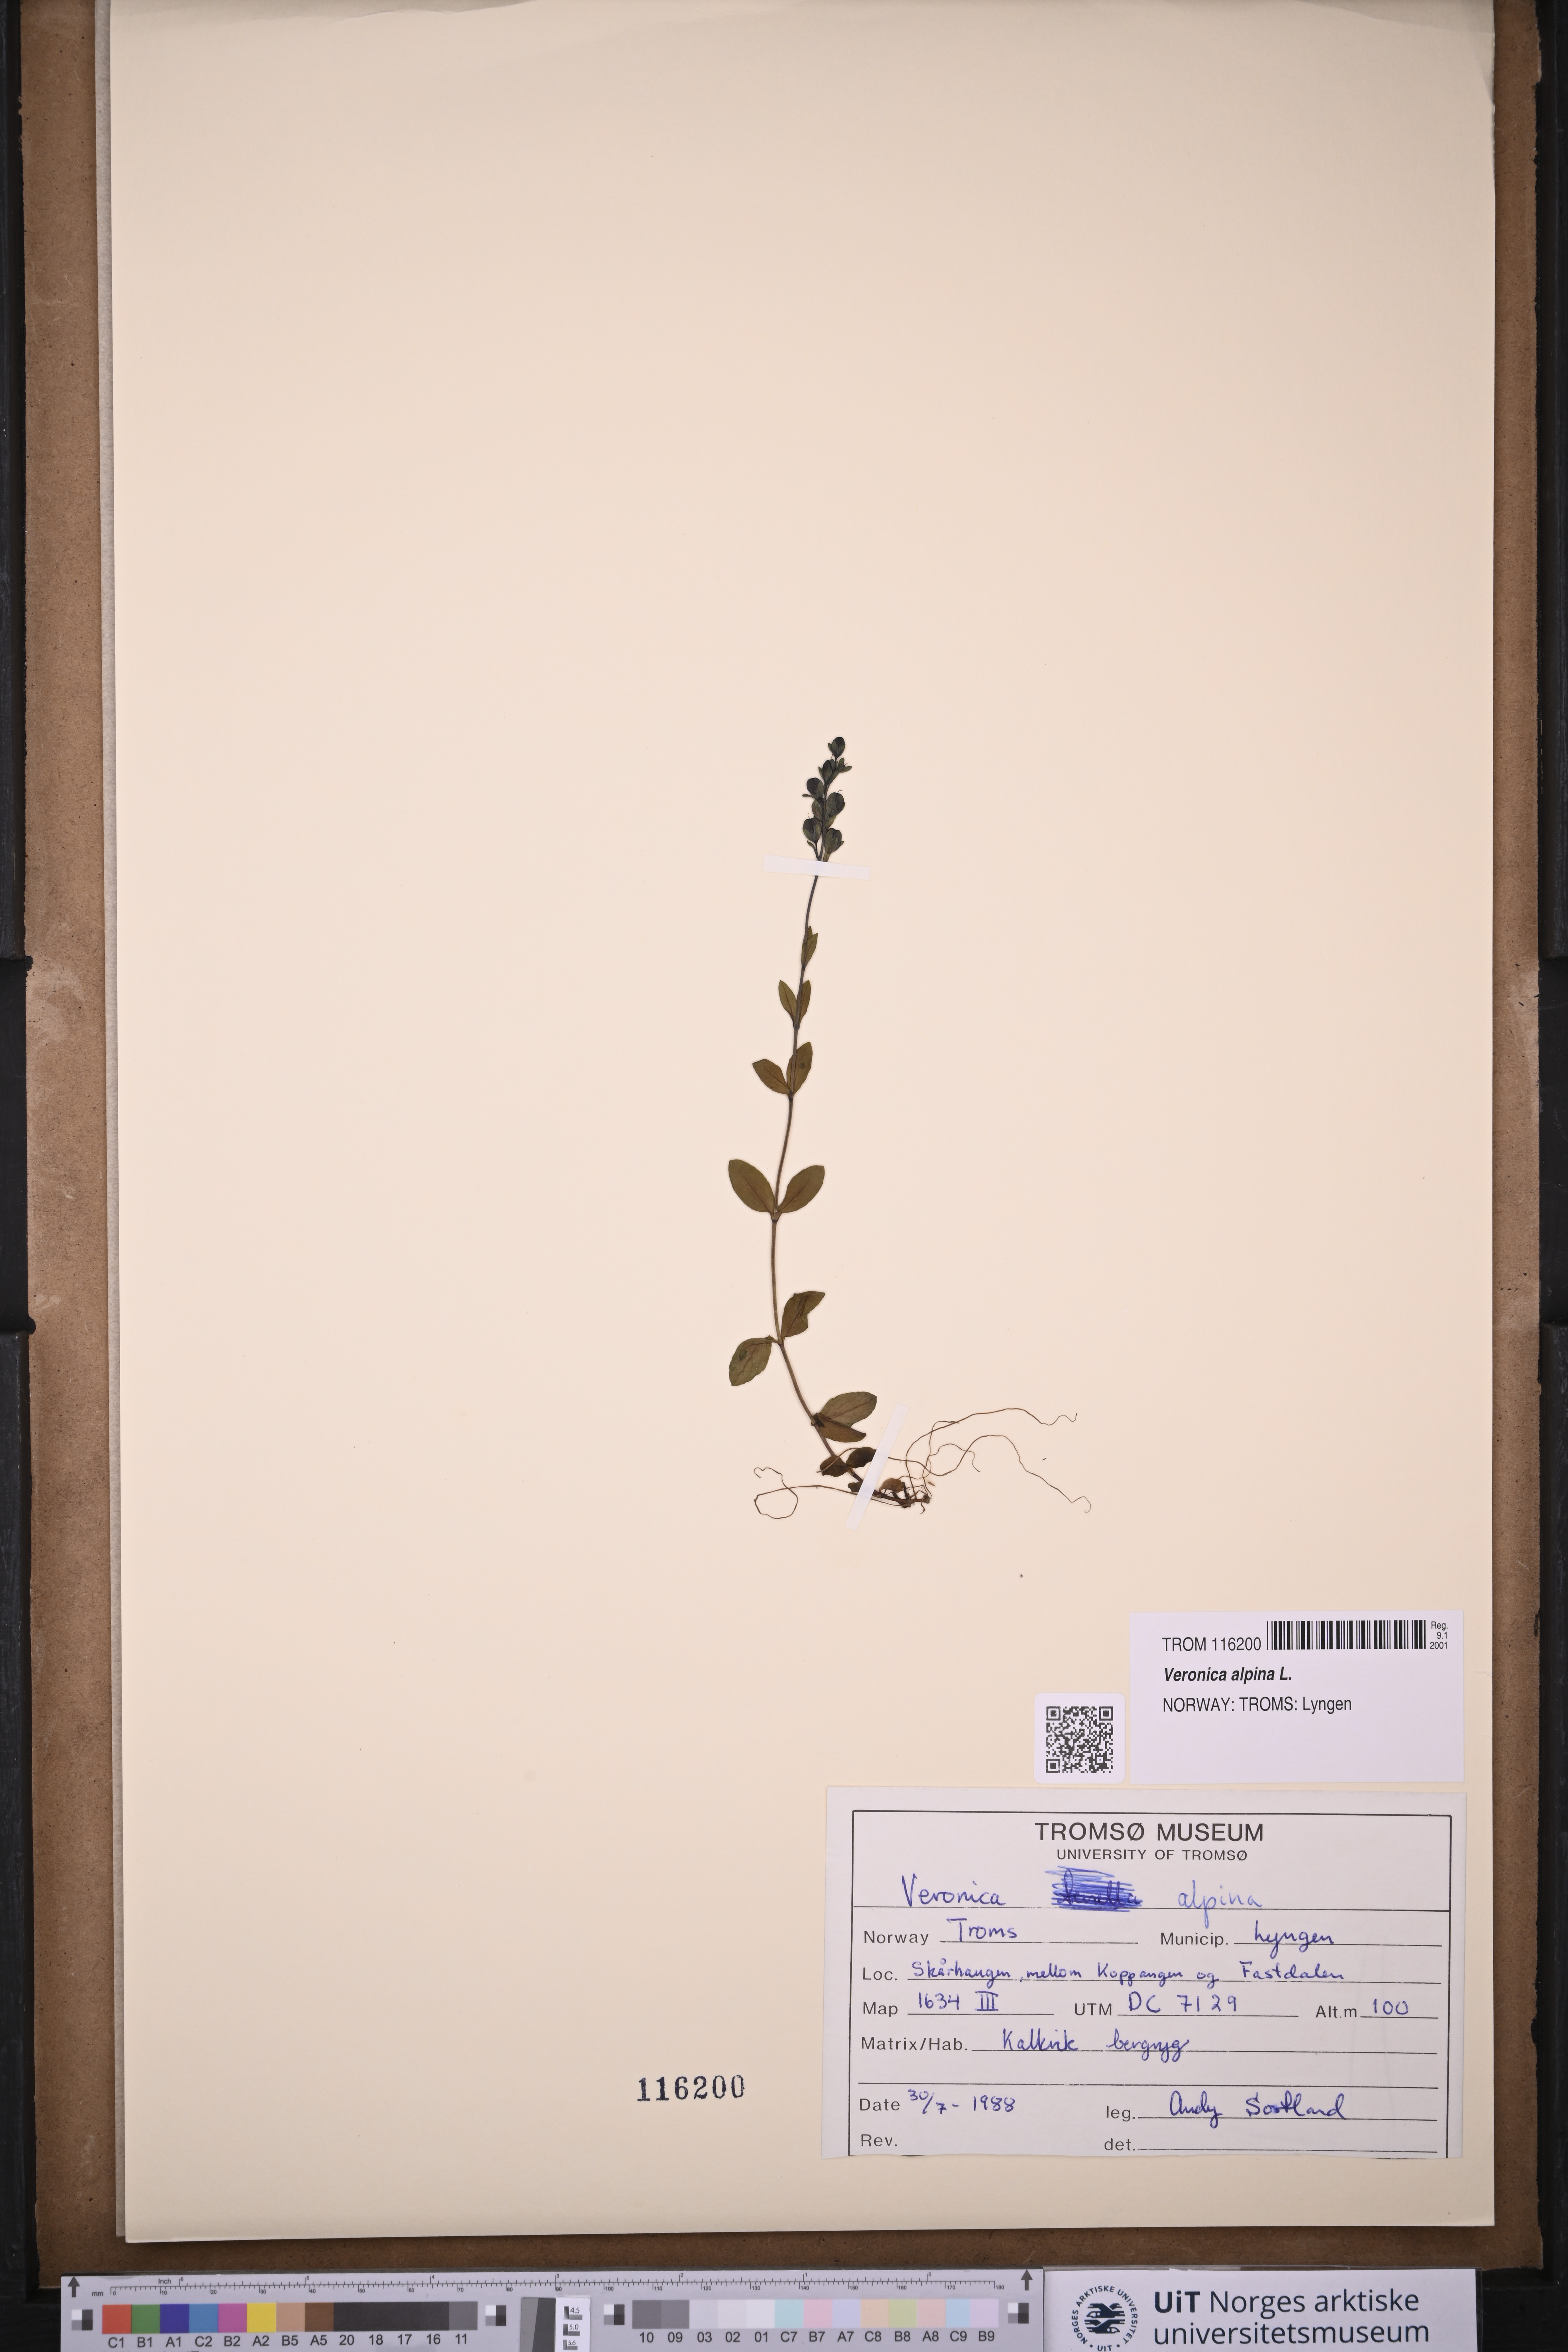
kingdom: Plantae
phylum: Tracheophyta
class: Magnoliopsida
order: Lamiales
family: Plantaginaceae
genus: Veronica
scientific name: Veronica alpina
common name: Alpine speedwell
